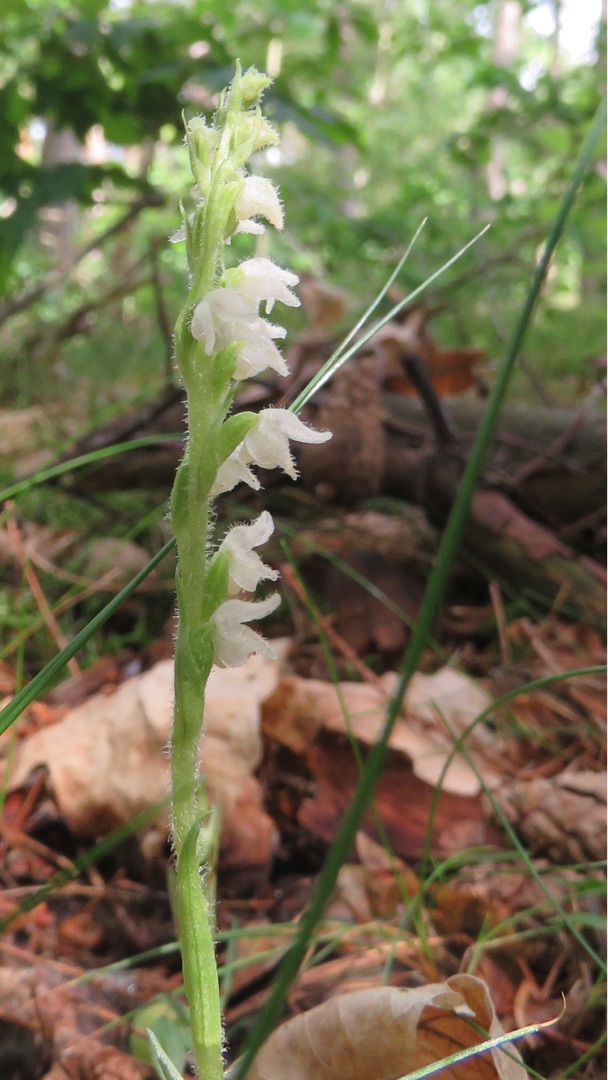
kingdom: Plantae
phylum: Tracheophyta
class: Liliopsida
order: Asparagales
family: Orchidaceae
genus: Goodyera
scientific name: Goodyera repens
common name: Knærod
